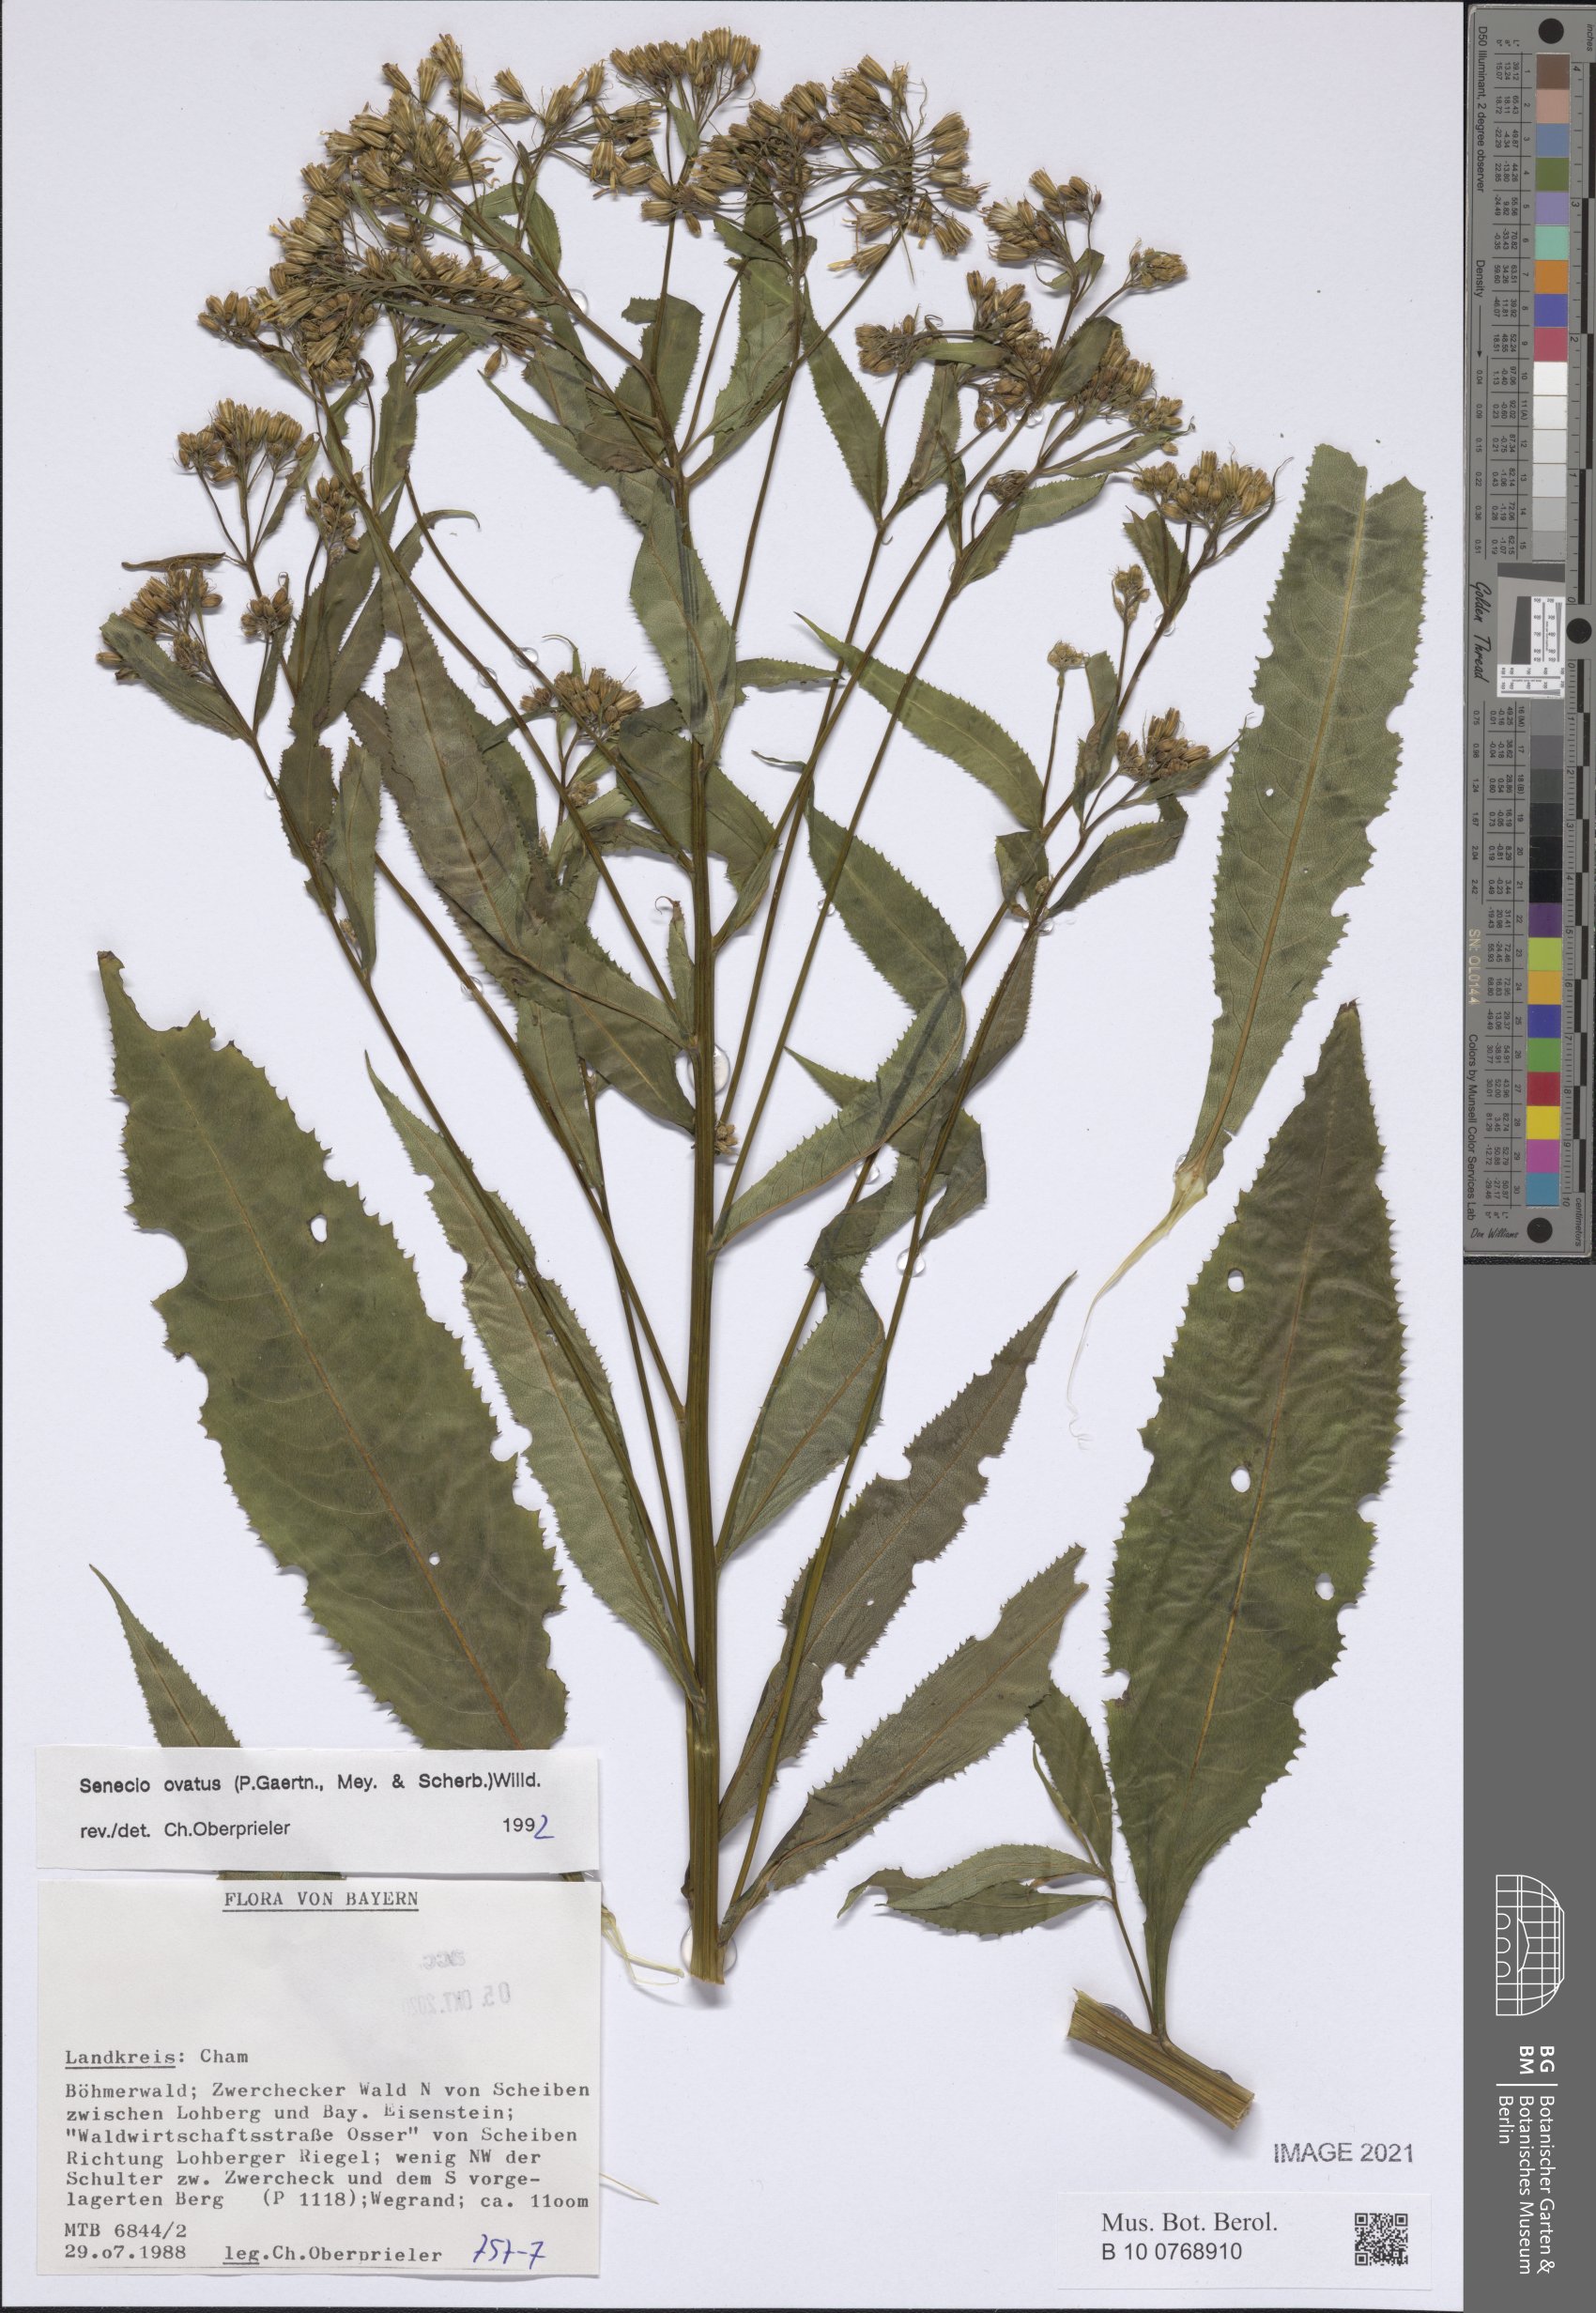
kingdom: Plantae
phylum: Tracheophyta
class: Magnoliopsida
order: Asterales
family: Asteraceae
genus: Senecio
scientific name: Senecio ovatus
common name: Wood ragwort
